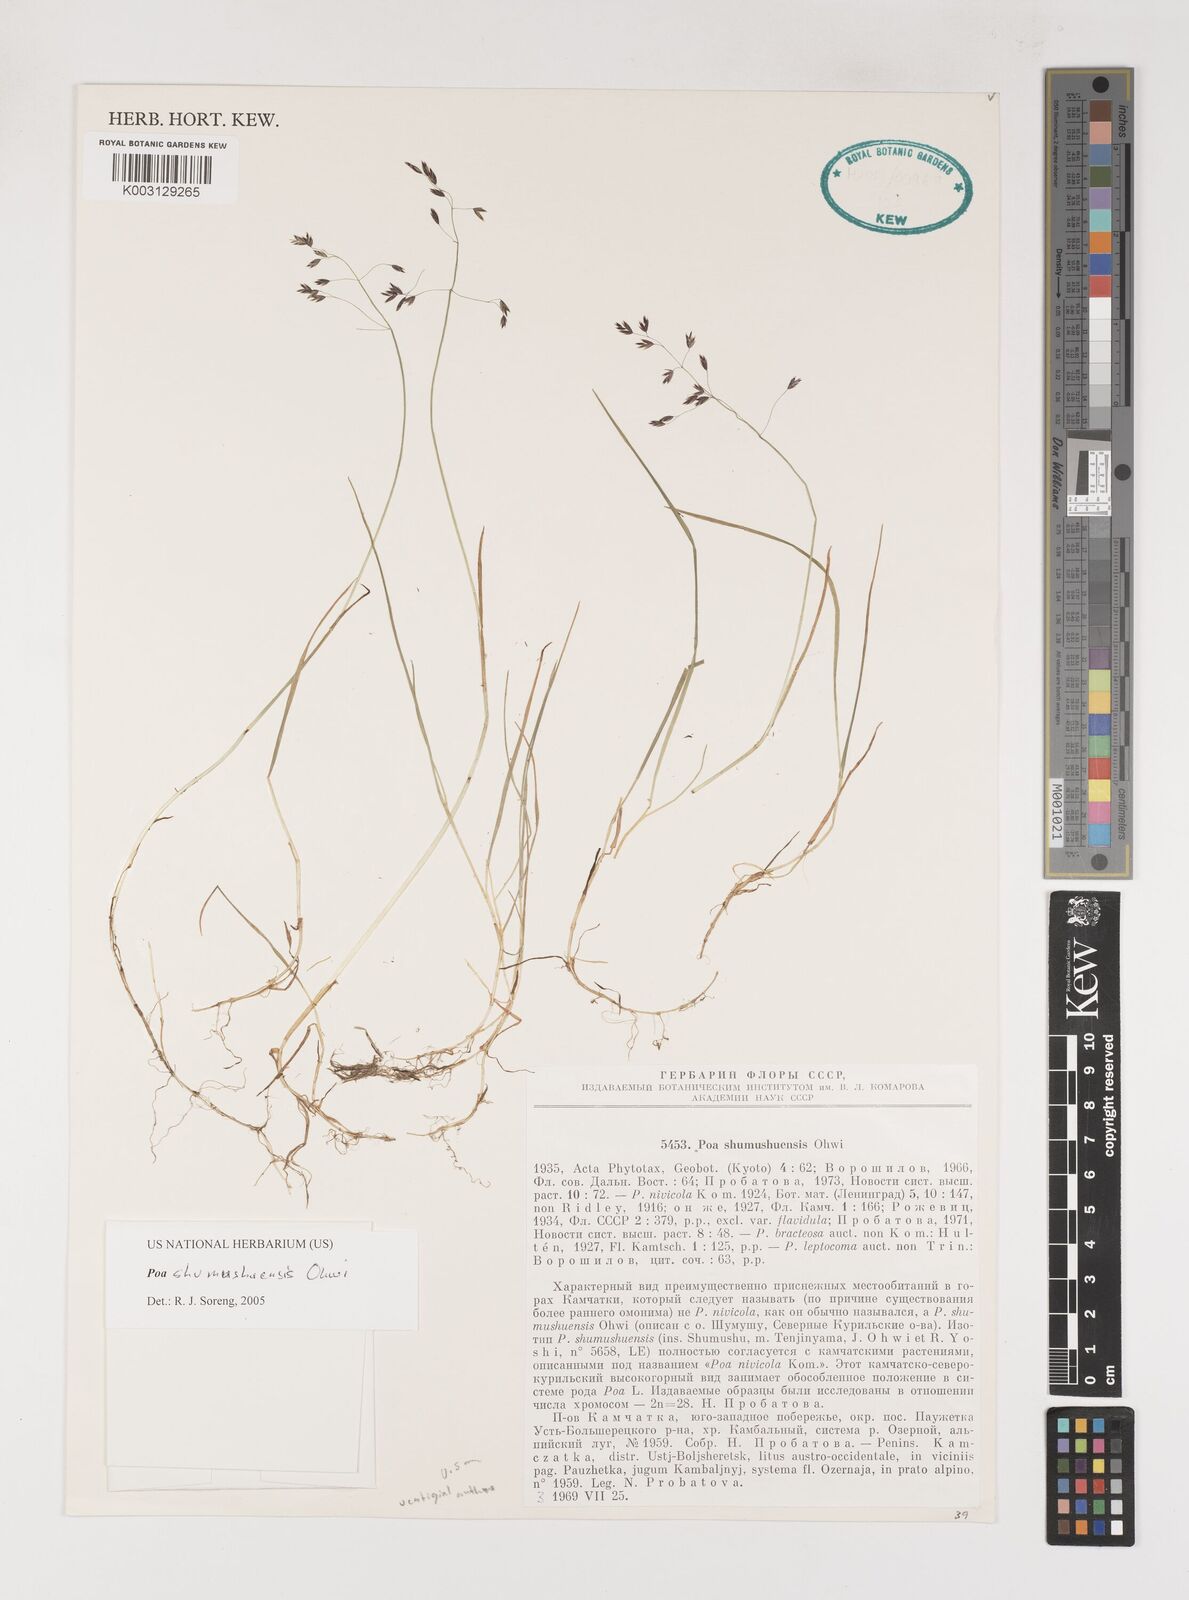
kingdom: Plantae
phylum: Tracheophyta
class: Liliopsida
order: Poales
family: Poaceae
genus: Poa
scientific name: Poa shumushuensis
